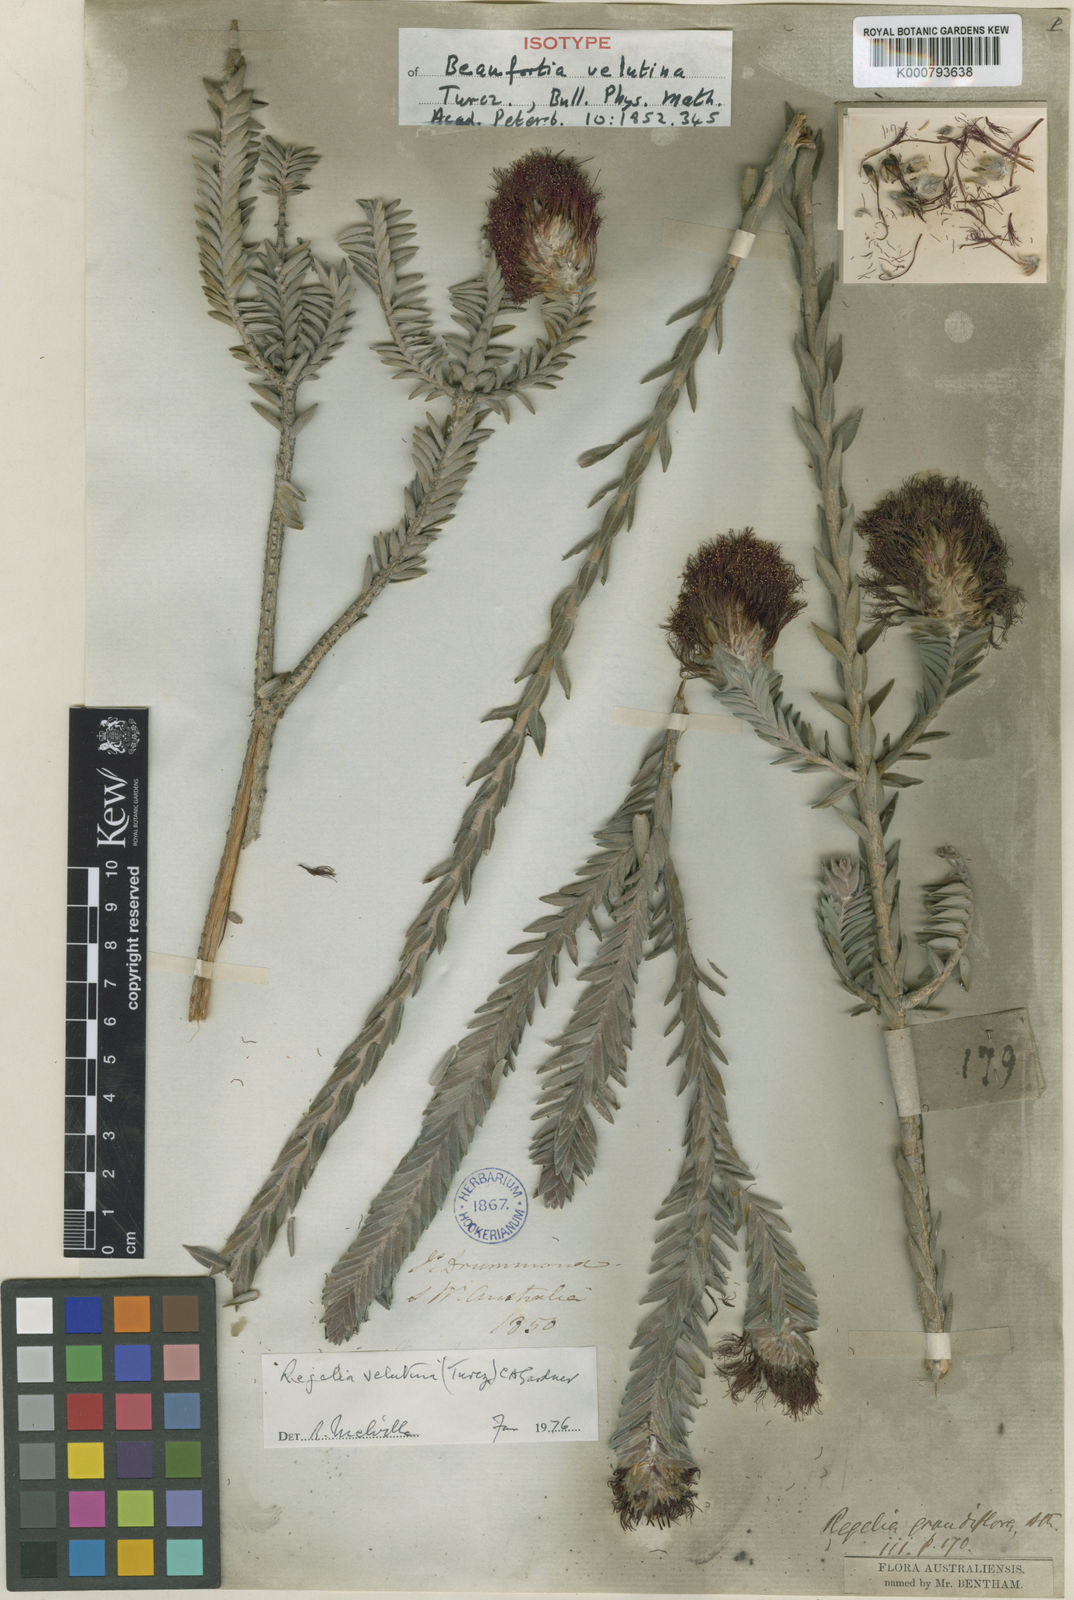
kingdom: Plantae
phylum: Tracheophyta
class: Magnoliopsida
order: Myrtales
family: Myrtaceae
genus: Melaleuca
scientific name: Melaleuca velutina
